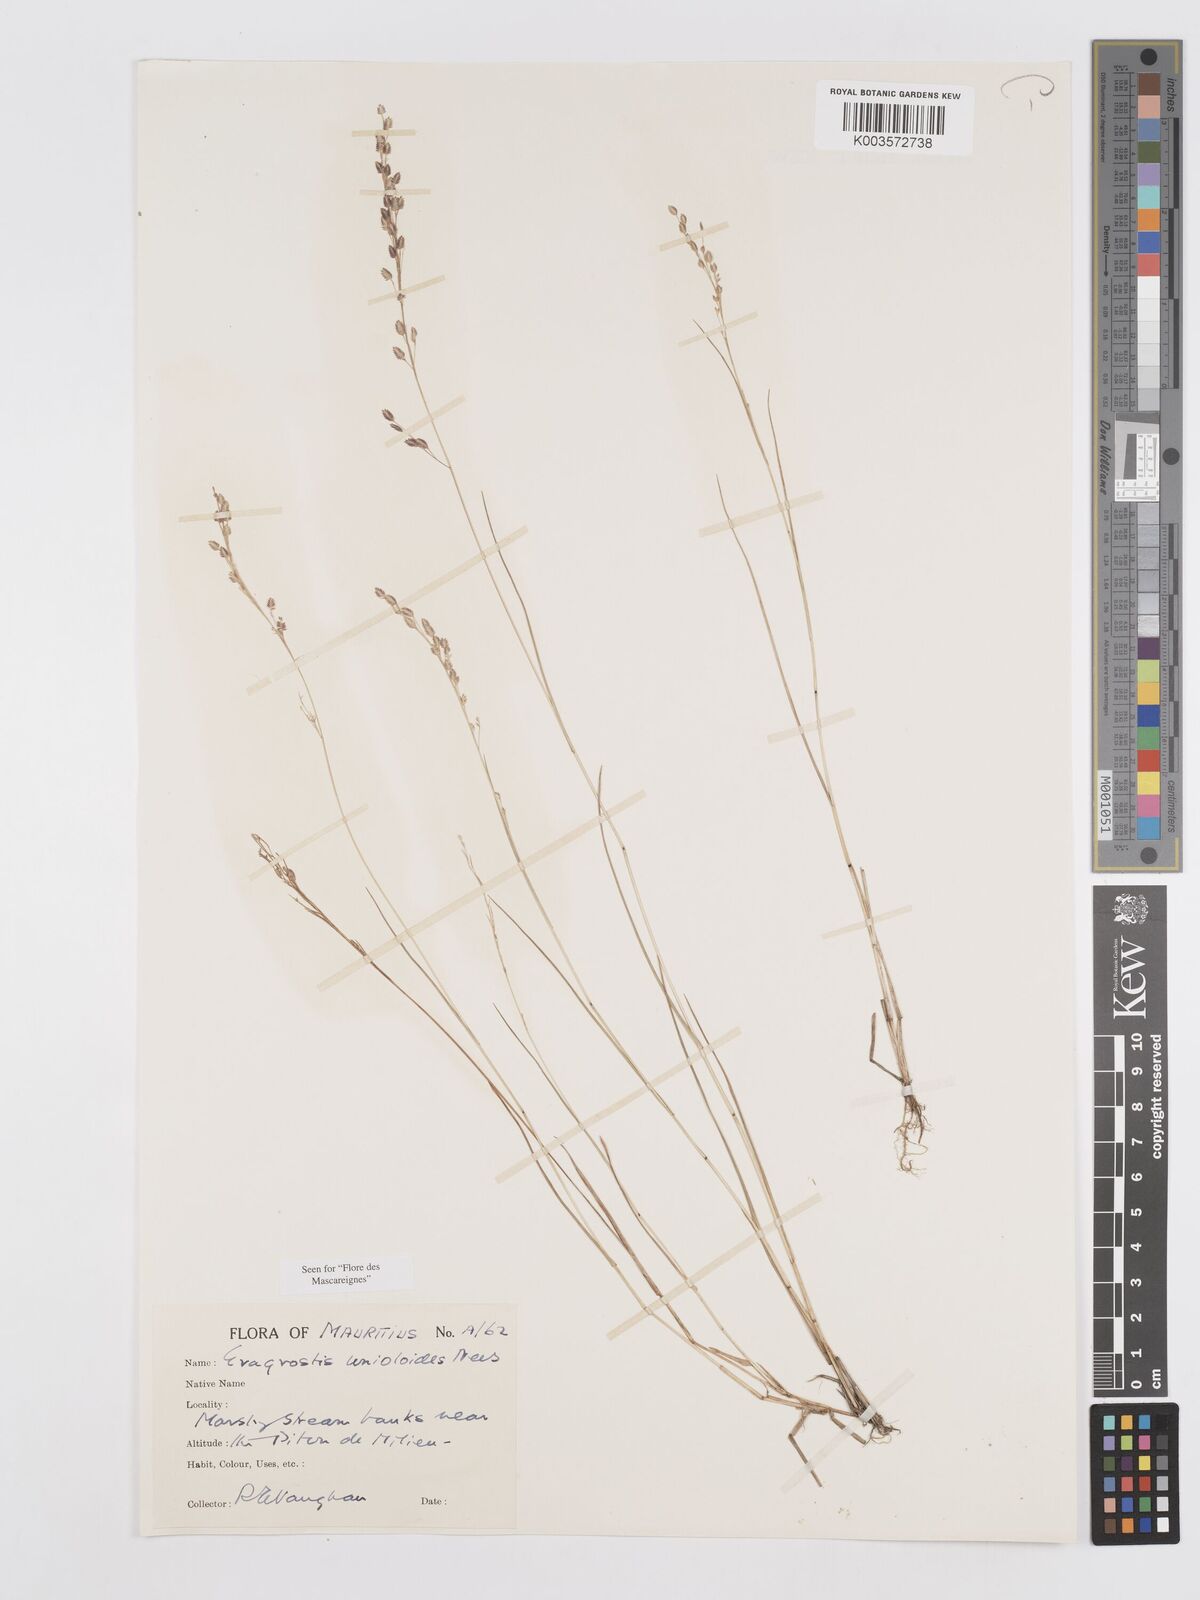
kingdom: Plantae
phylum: Tracheophyta
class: Liliopsida
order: Poales
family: Poaceae
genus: Eragrostis
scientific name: Eragrostis unioloides
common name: Chinese lovegrass
